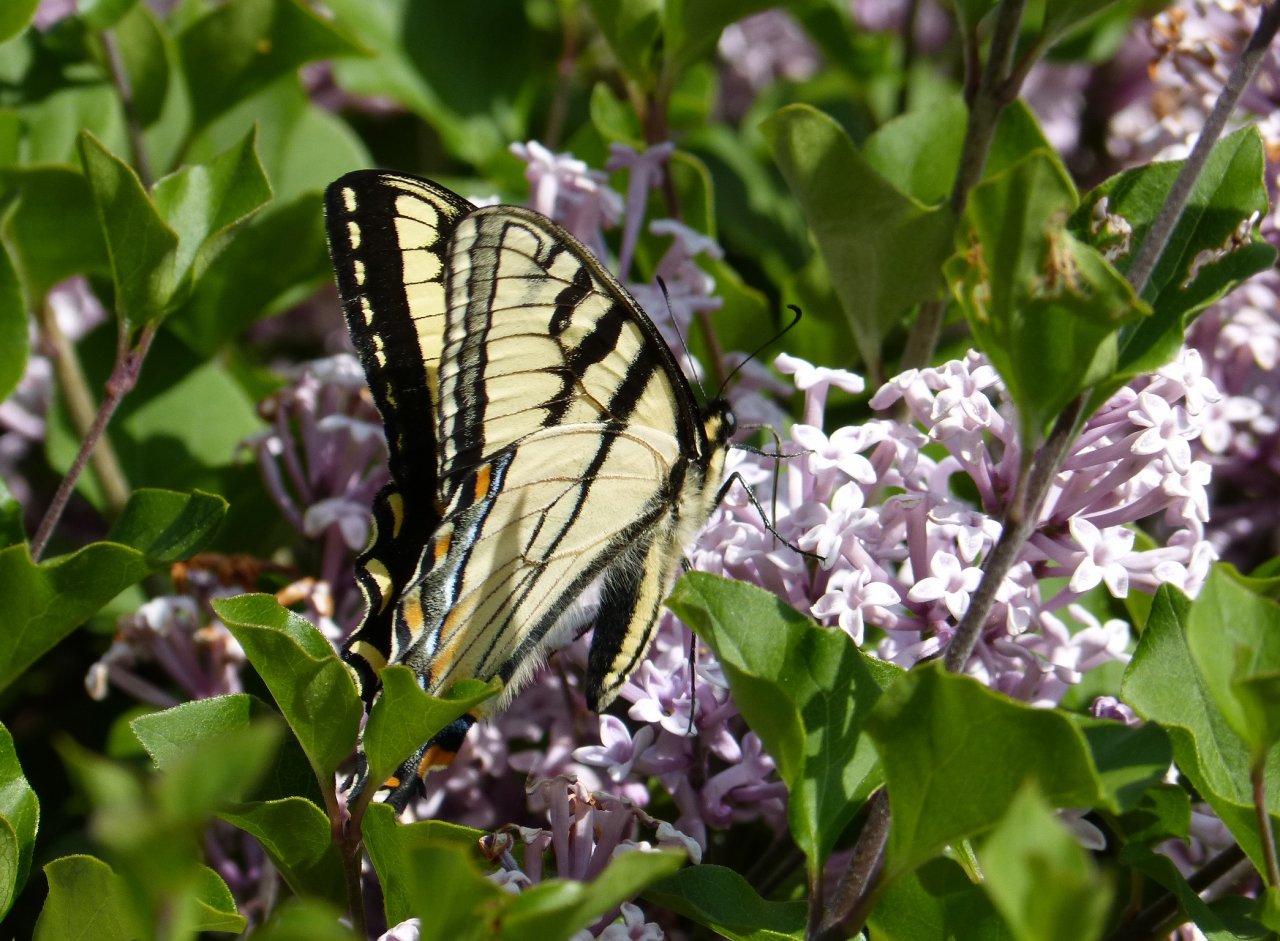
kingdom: Animalia
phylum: Arthropoda
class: Insecta
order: Lepidoptera
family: Papilionidae
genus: Pterourus
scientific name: Pterourus canadensis
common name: Canadian Tiger Swallowtail
